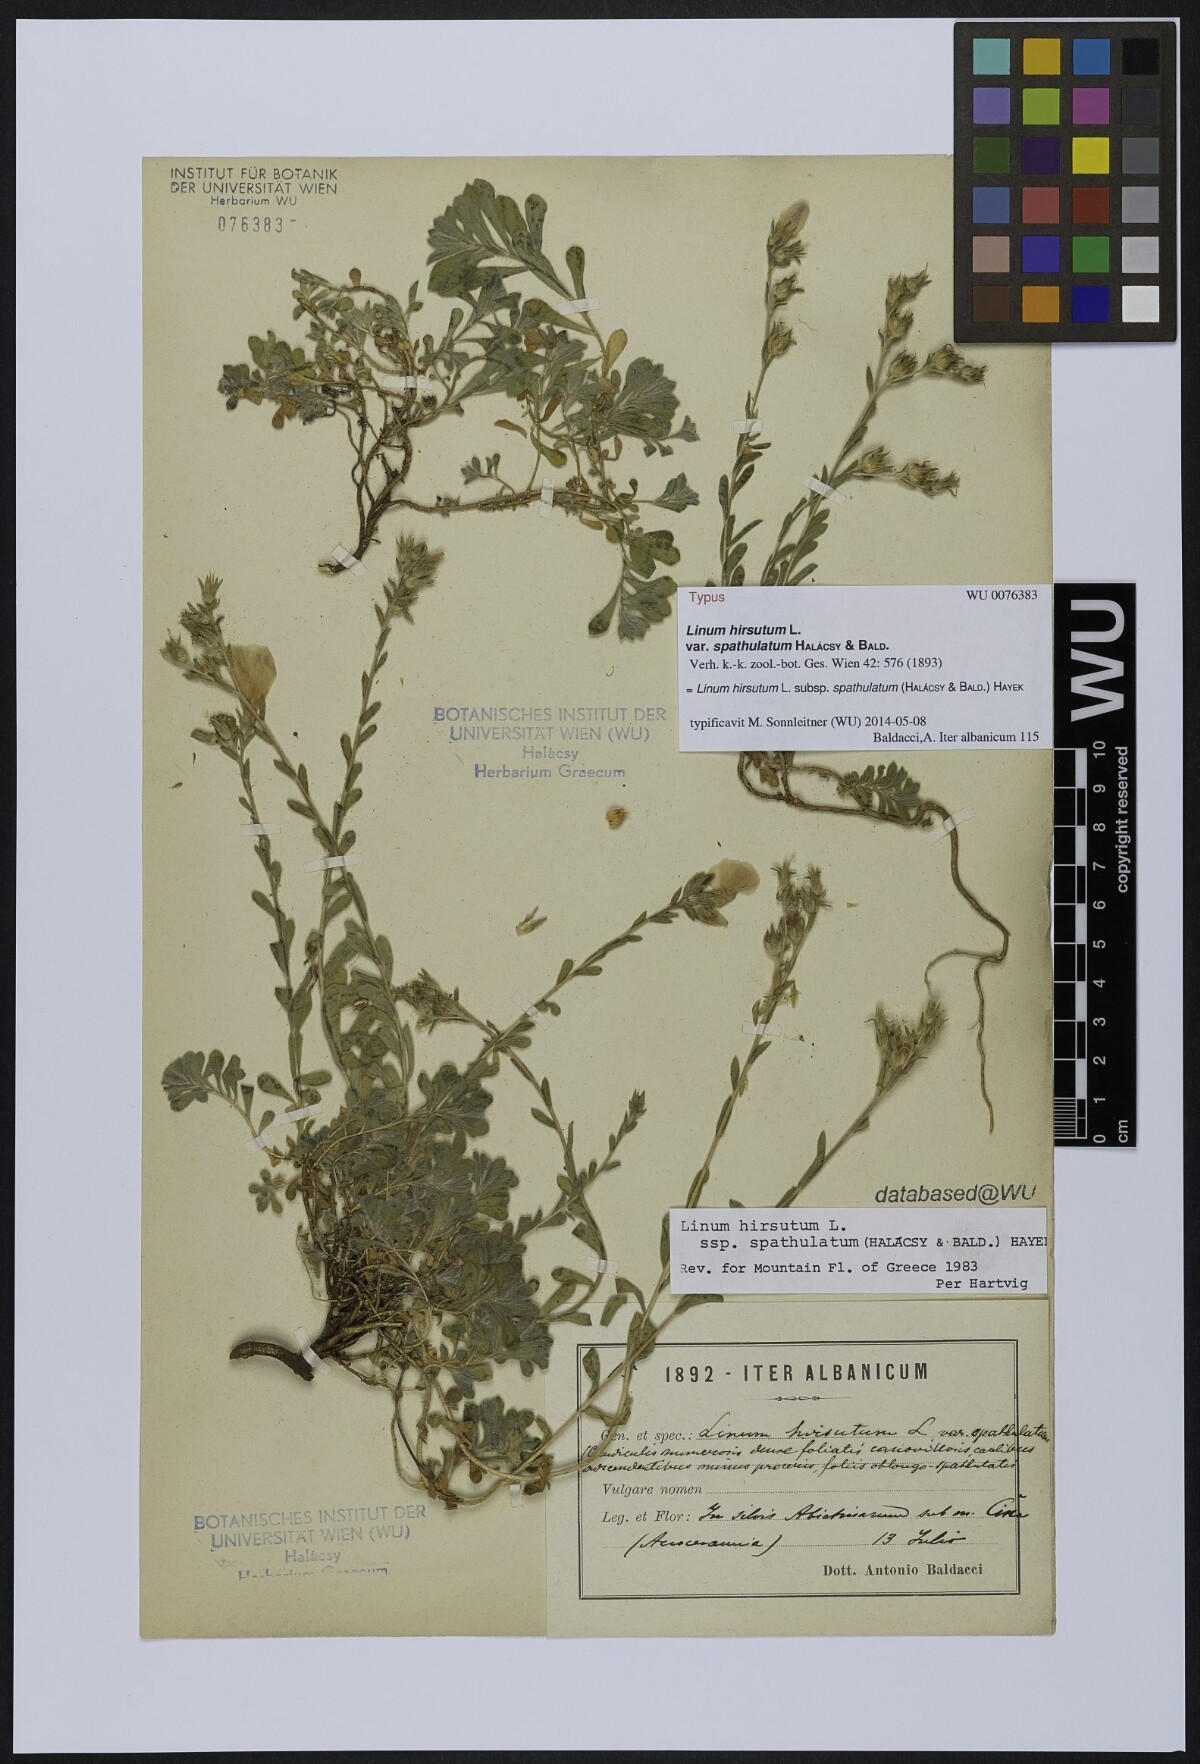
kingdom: Plantae
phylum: Tracheophyta
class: Magnoliopsida
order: Malpighiales
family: Linaceae
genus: Linum
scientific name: Linum hirsutum
